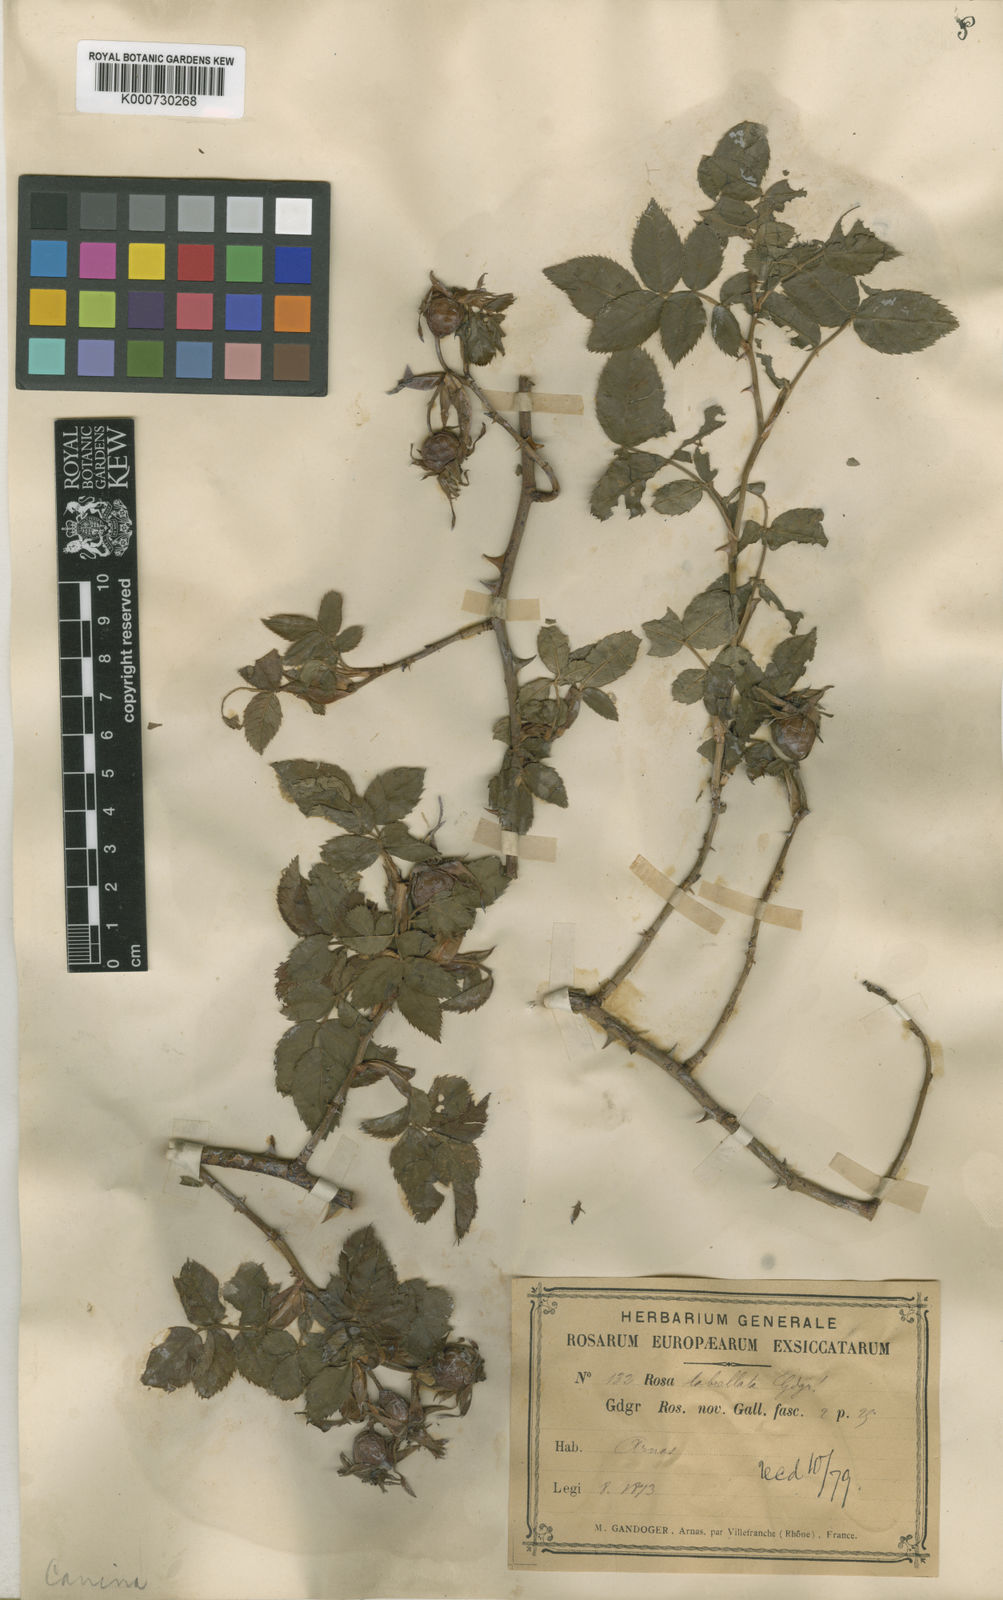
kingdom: Plantae
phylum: Tracheophyta
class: Magnoliopsida
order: Rosales
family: Rosaceae
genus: Rosa
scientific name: Rosa canina
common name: Dog rose
